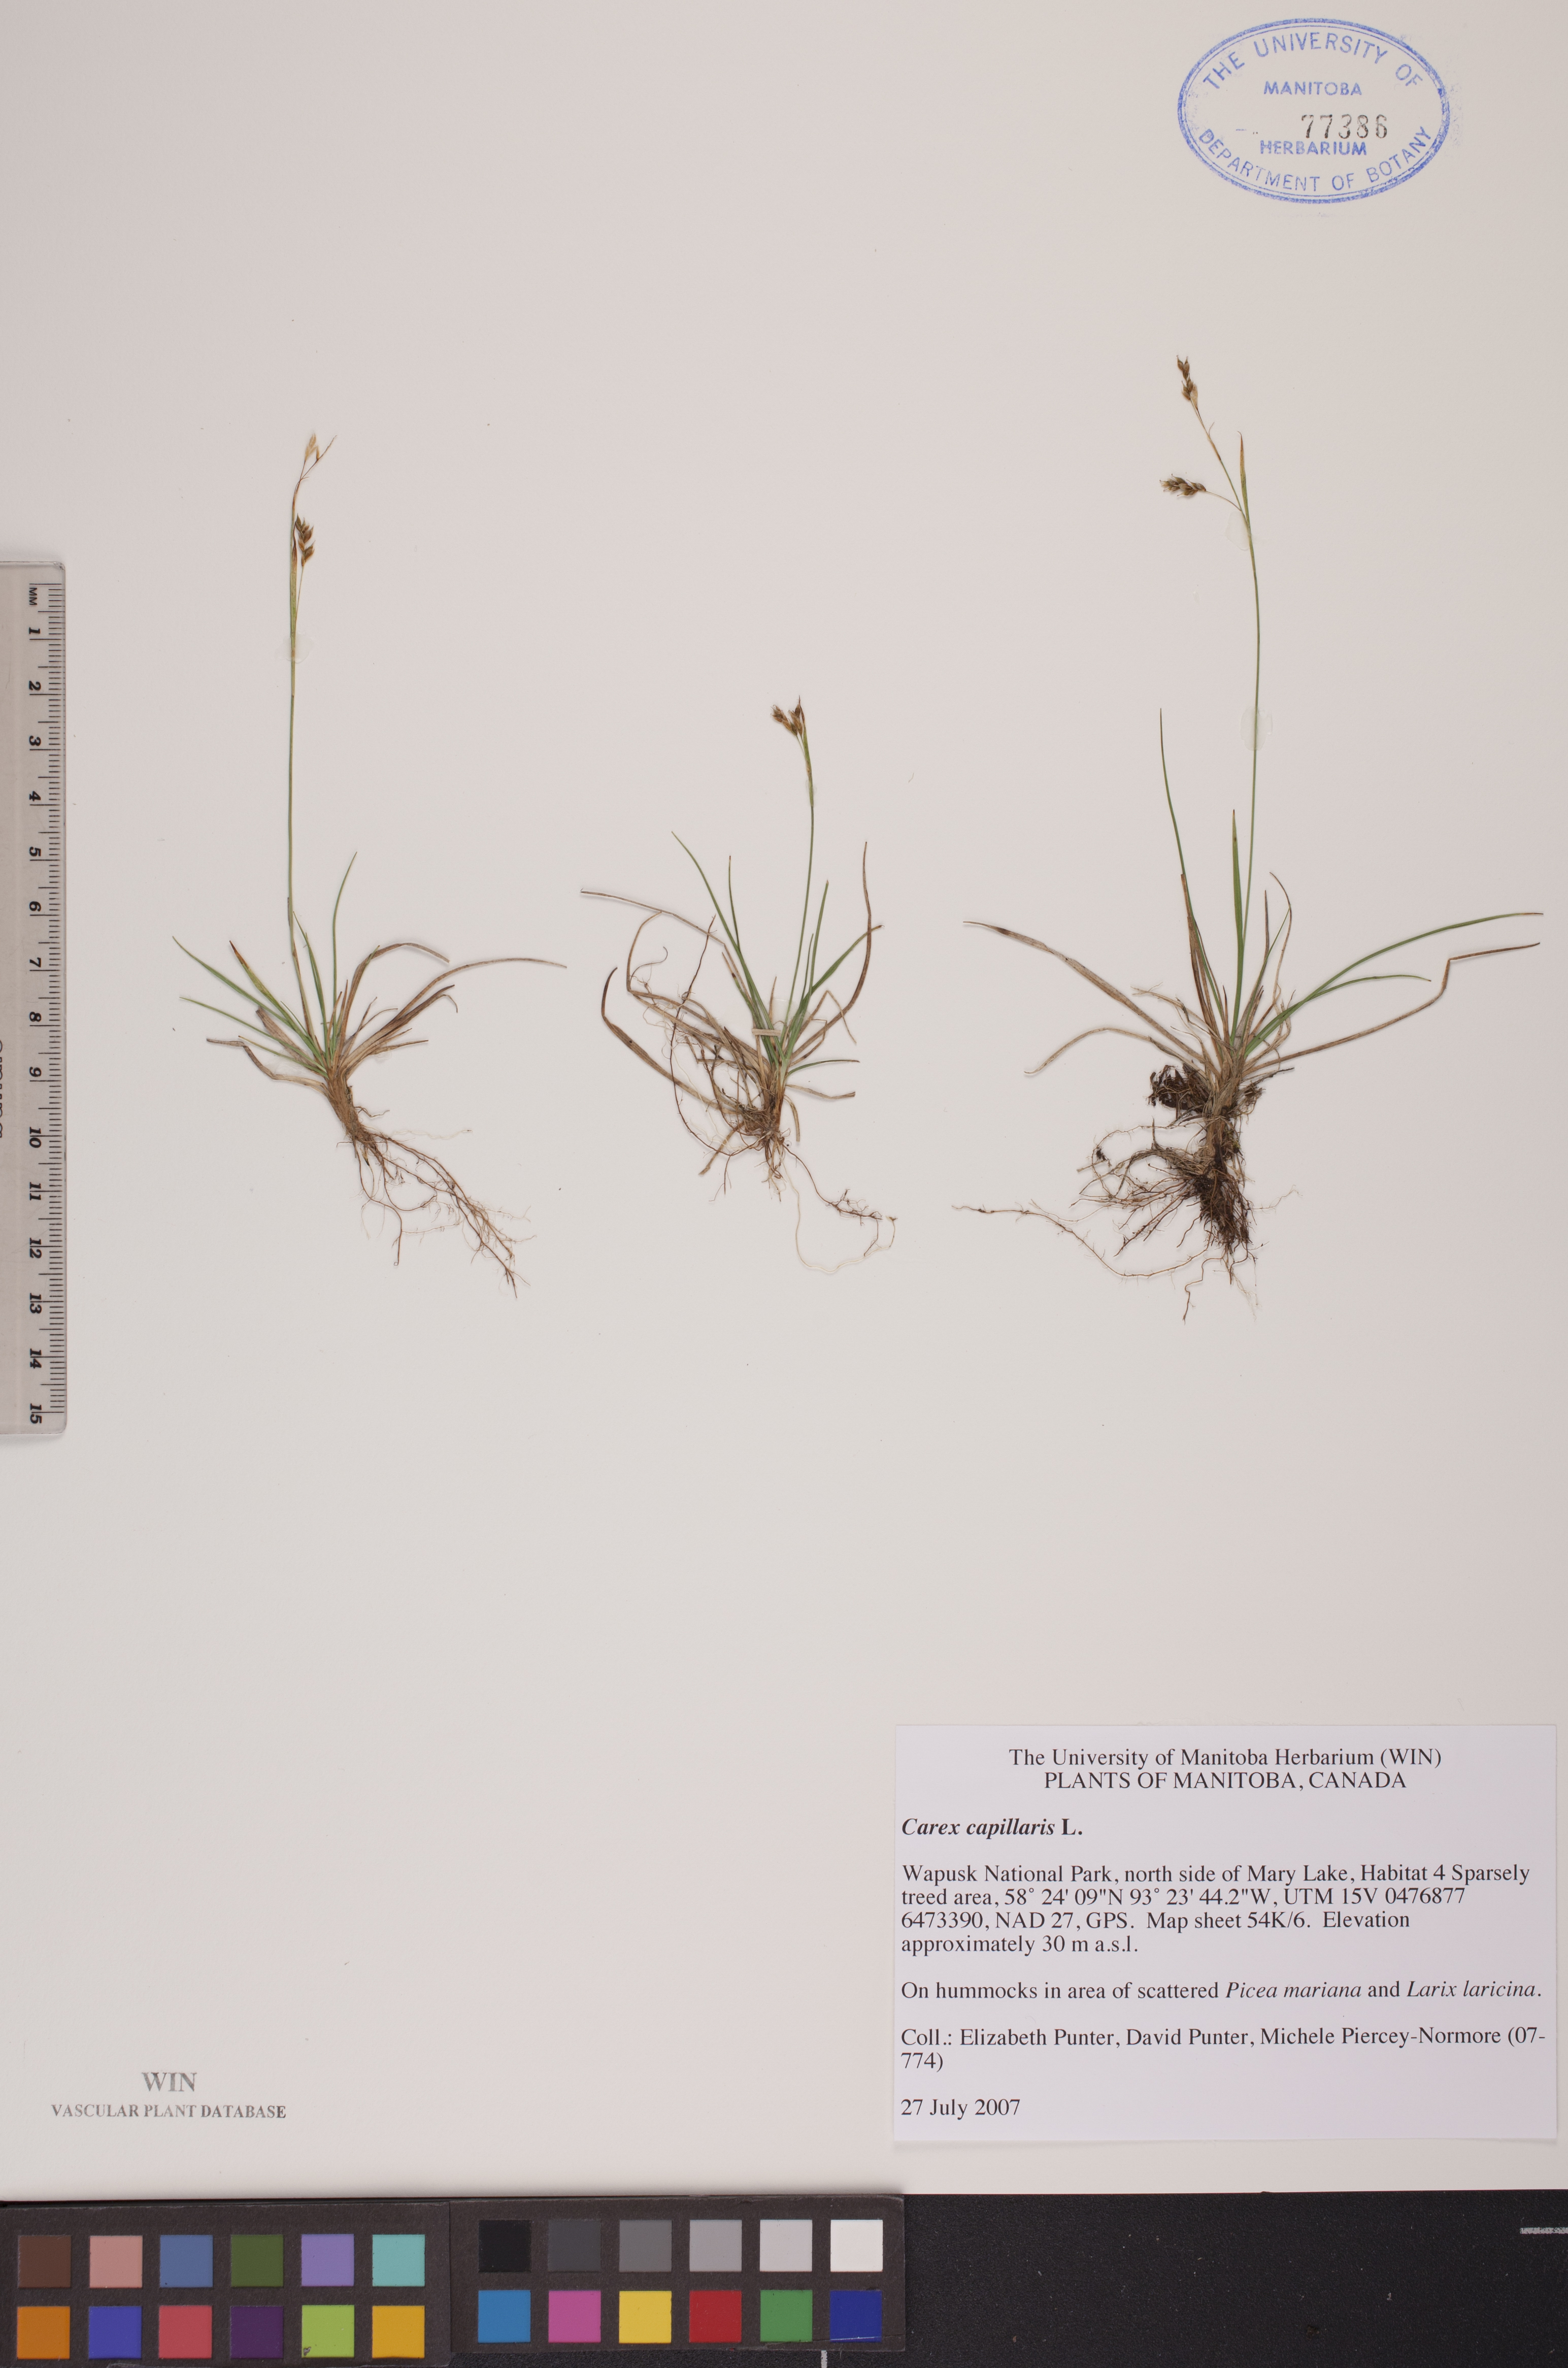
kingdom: Plantae
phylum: Tracheophyta
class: Liliopsida
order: Poales
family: Cyperaceae
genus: Carex
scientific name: Carex capillaris
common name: Hair sedge
